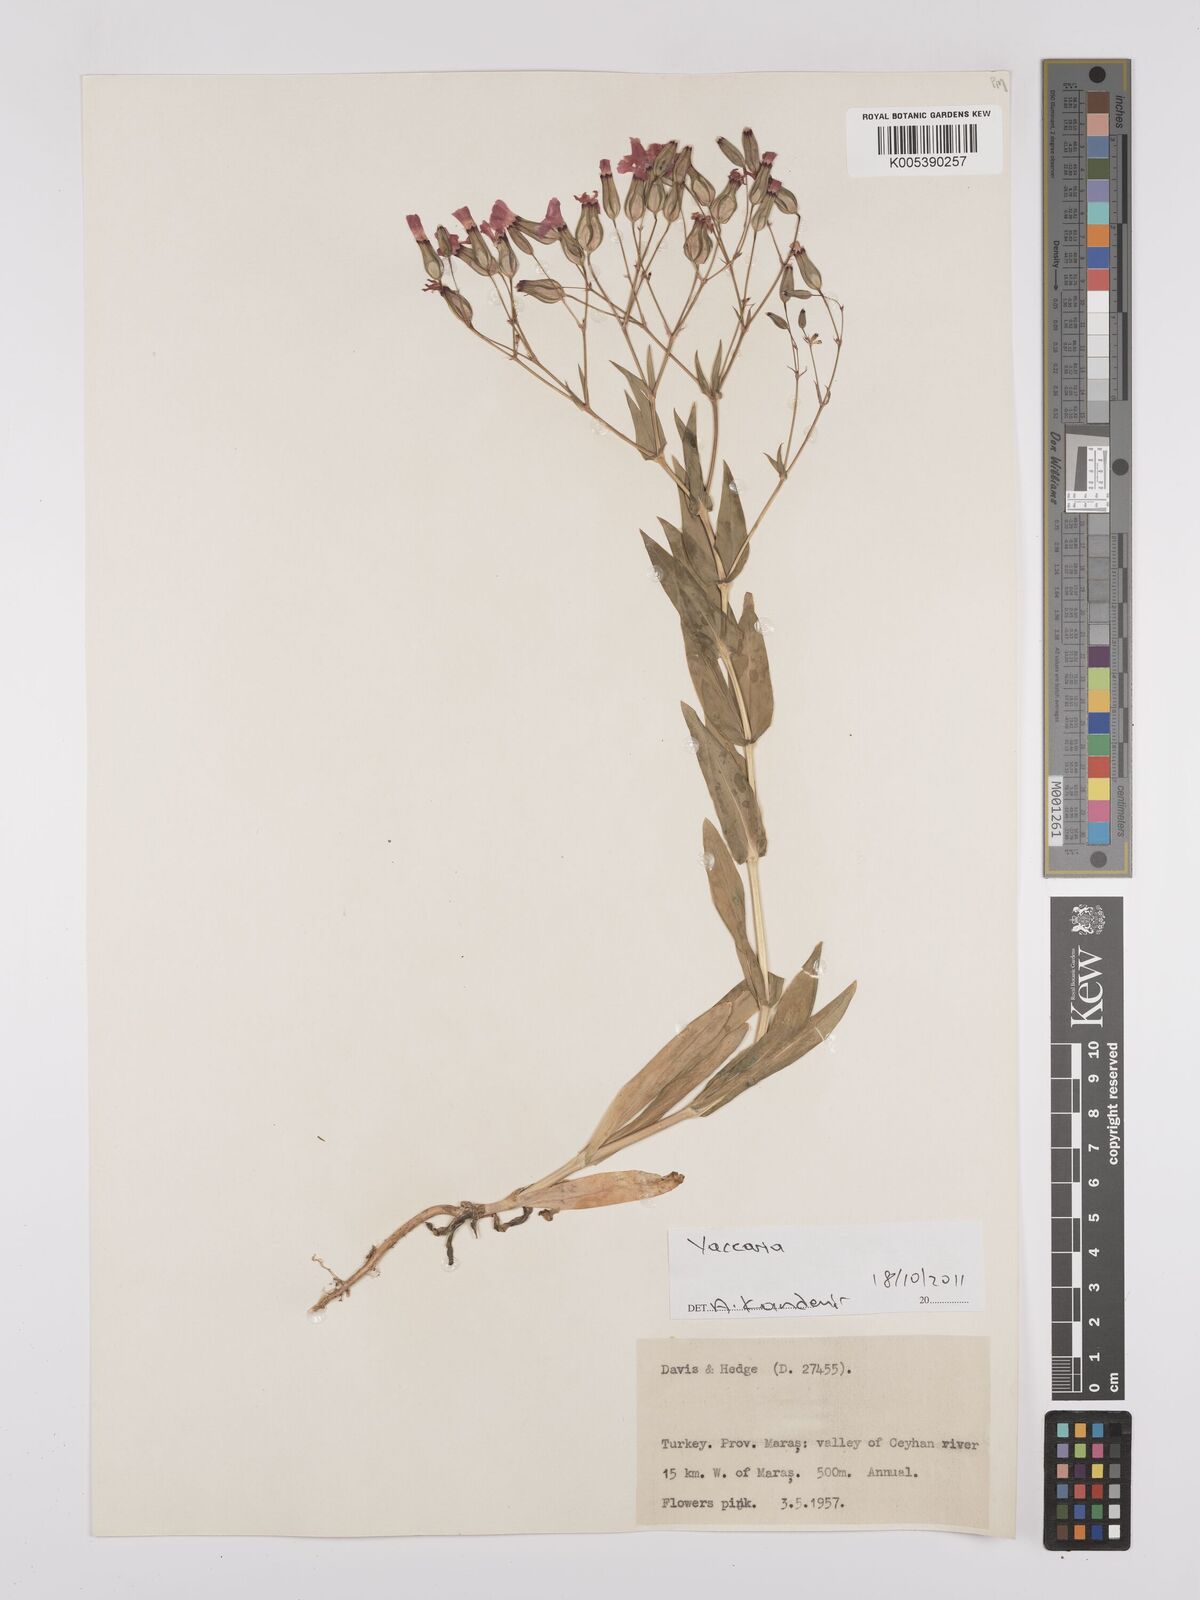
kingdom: Plantae
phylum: Tracheophyta
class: Magnoliopsida
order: Caryophyllales
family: Caryophyllaceae
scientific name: Caryophyllaceae
